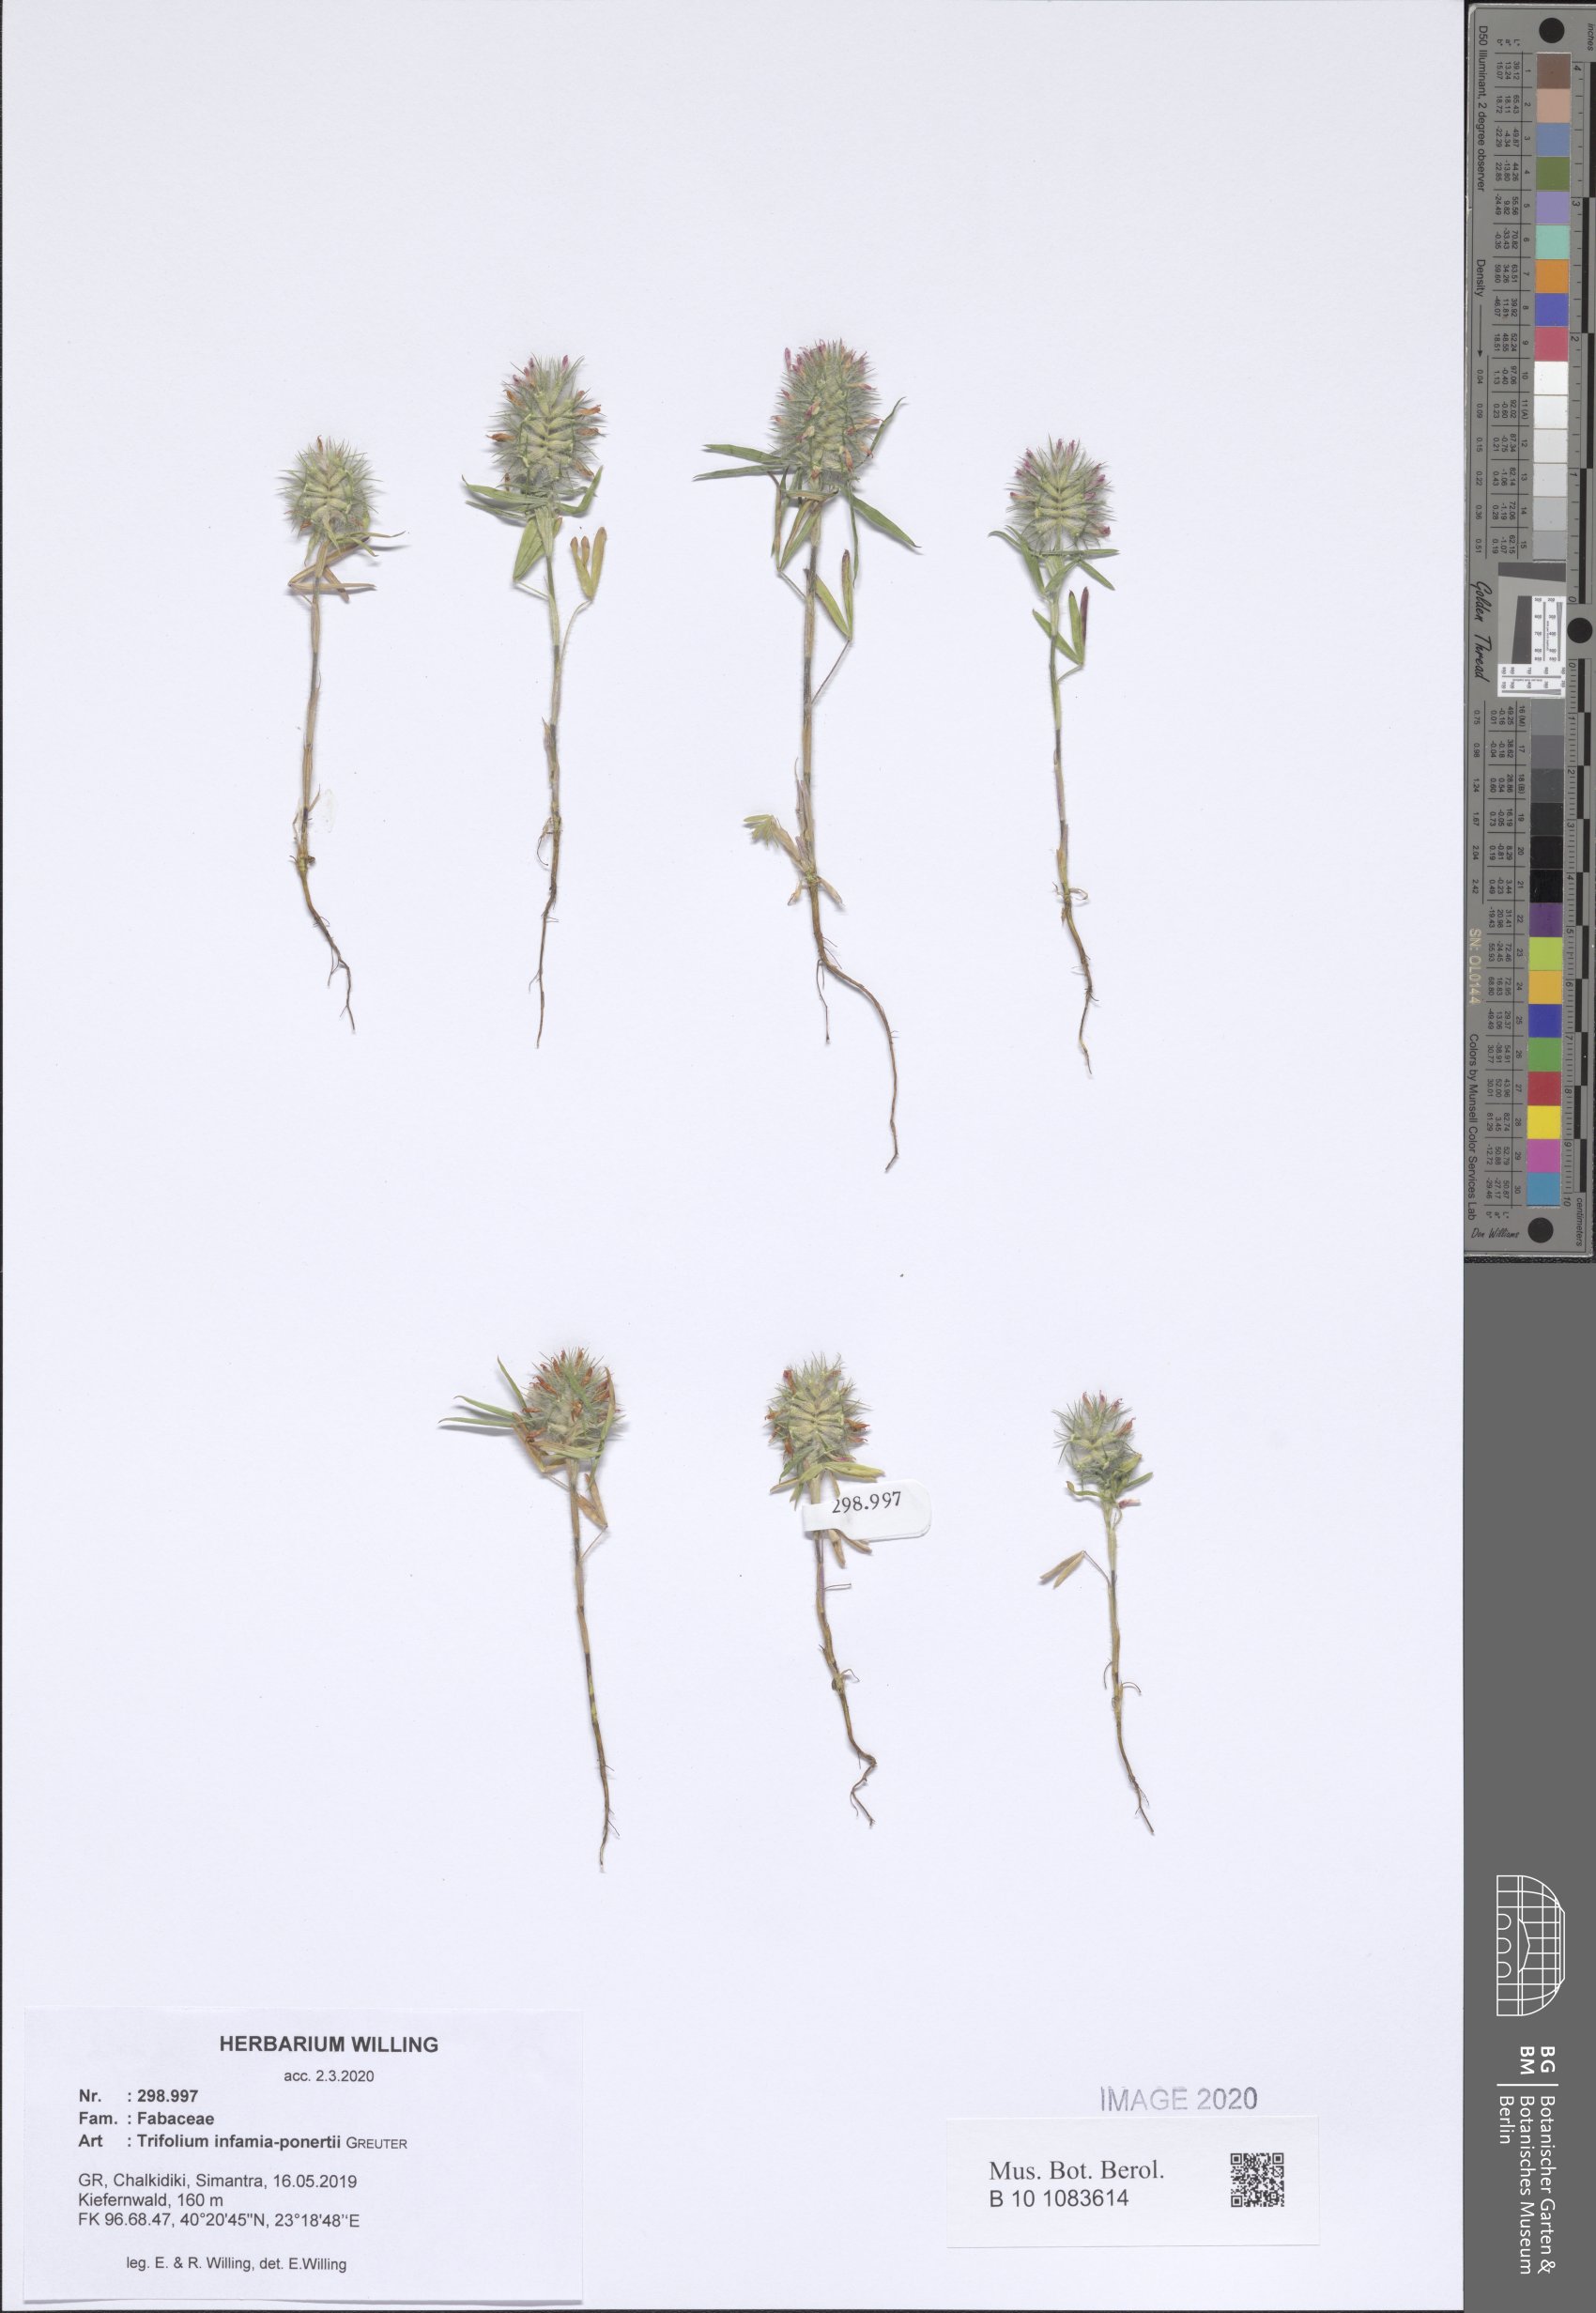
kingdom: Plantae
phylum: Tracheophyta
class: Magnoliopsida
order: Fabales
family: Fabaceae
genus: Trifolium
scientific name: Trifolium infamia-ponertii
